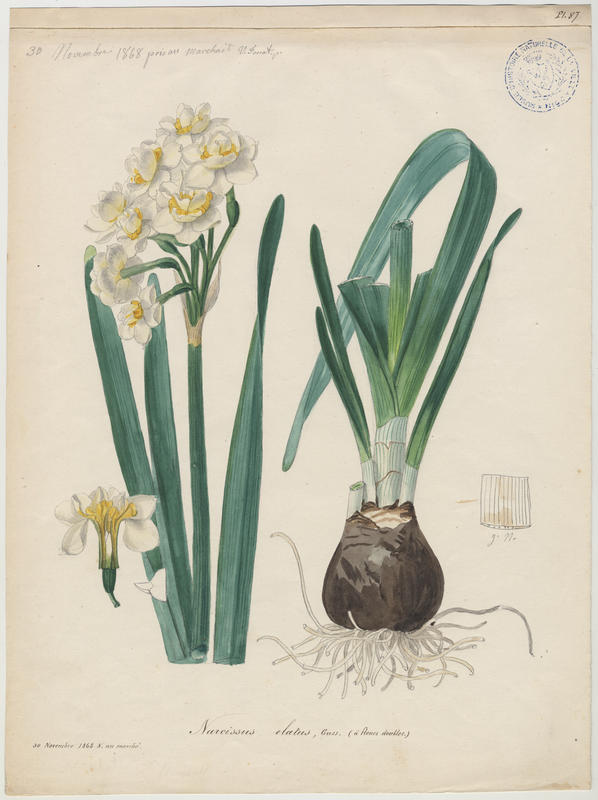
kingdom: Plantae
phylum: Tracheophyta
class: Liliopsida
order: Asparagales
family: Amaryllidaceae
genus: Narcissus
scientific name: Narcissus tazetta
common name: Bunch-flowered daffodil
